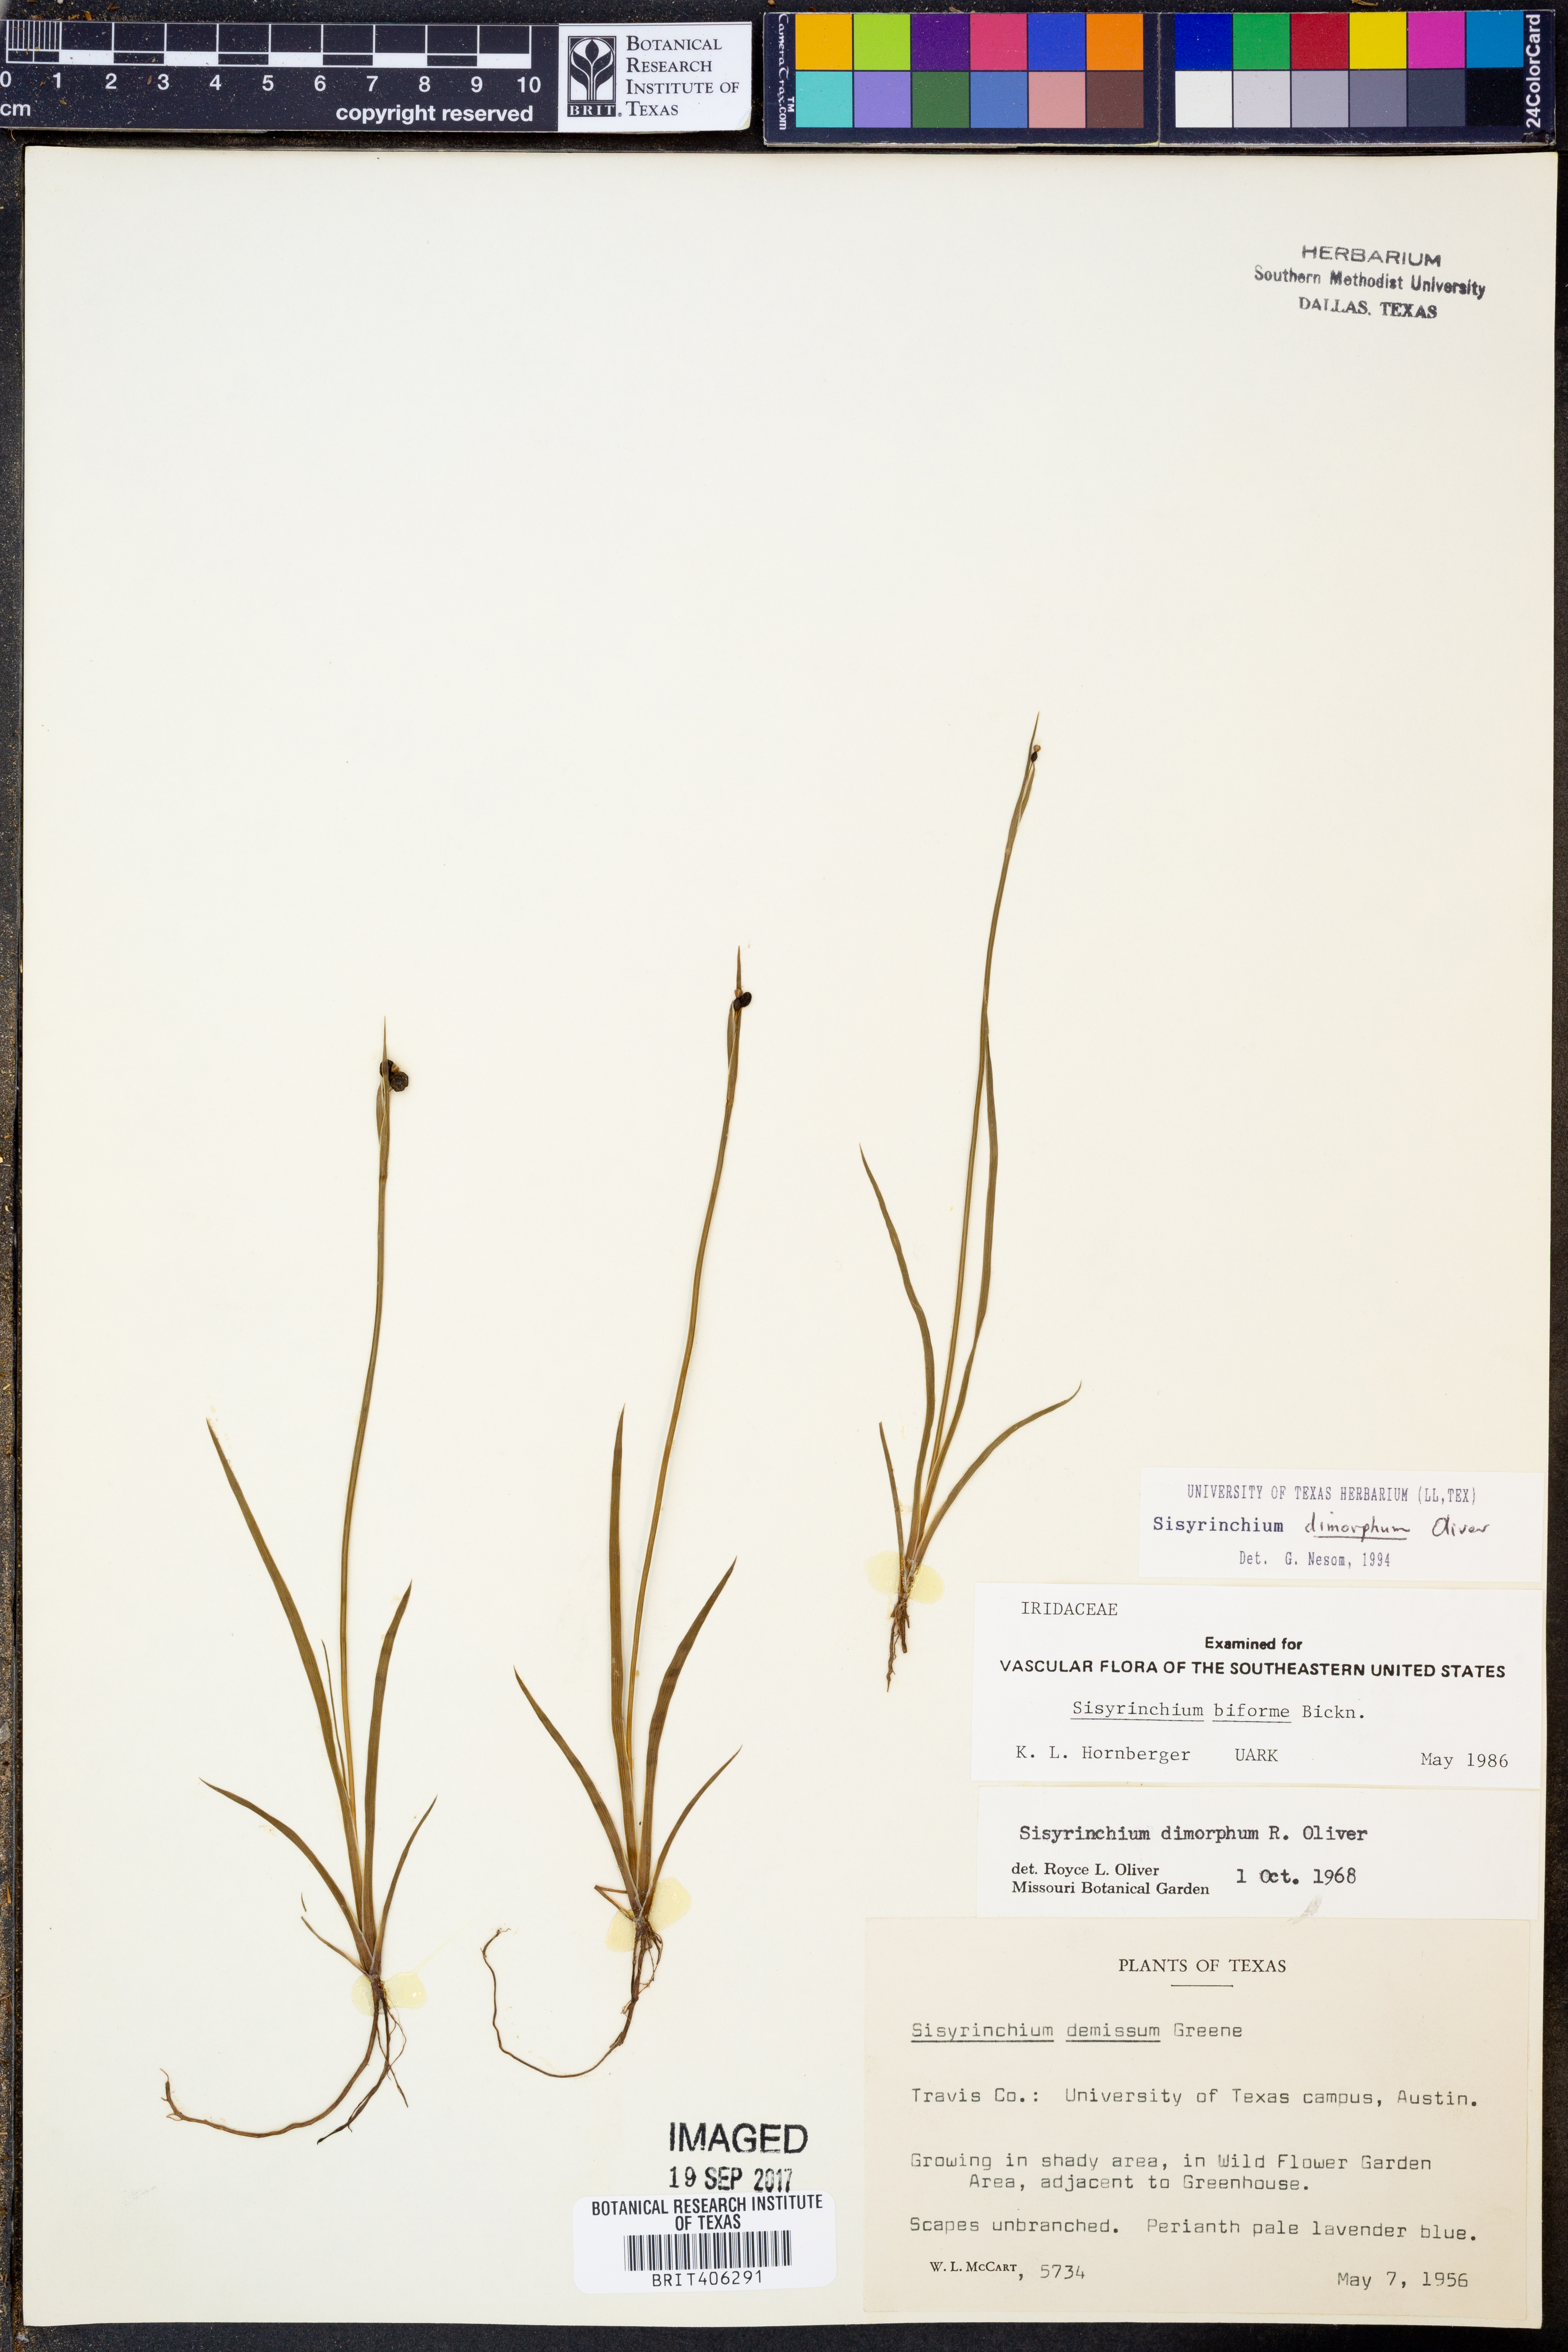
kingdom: Plantae
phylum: Tracheophyta
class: Liliopsida
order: Asparagales
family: Iridaceae
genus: Sisyrinchium
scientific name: Sisyrinchium dimorphum
